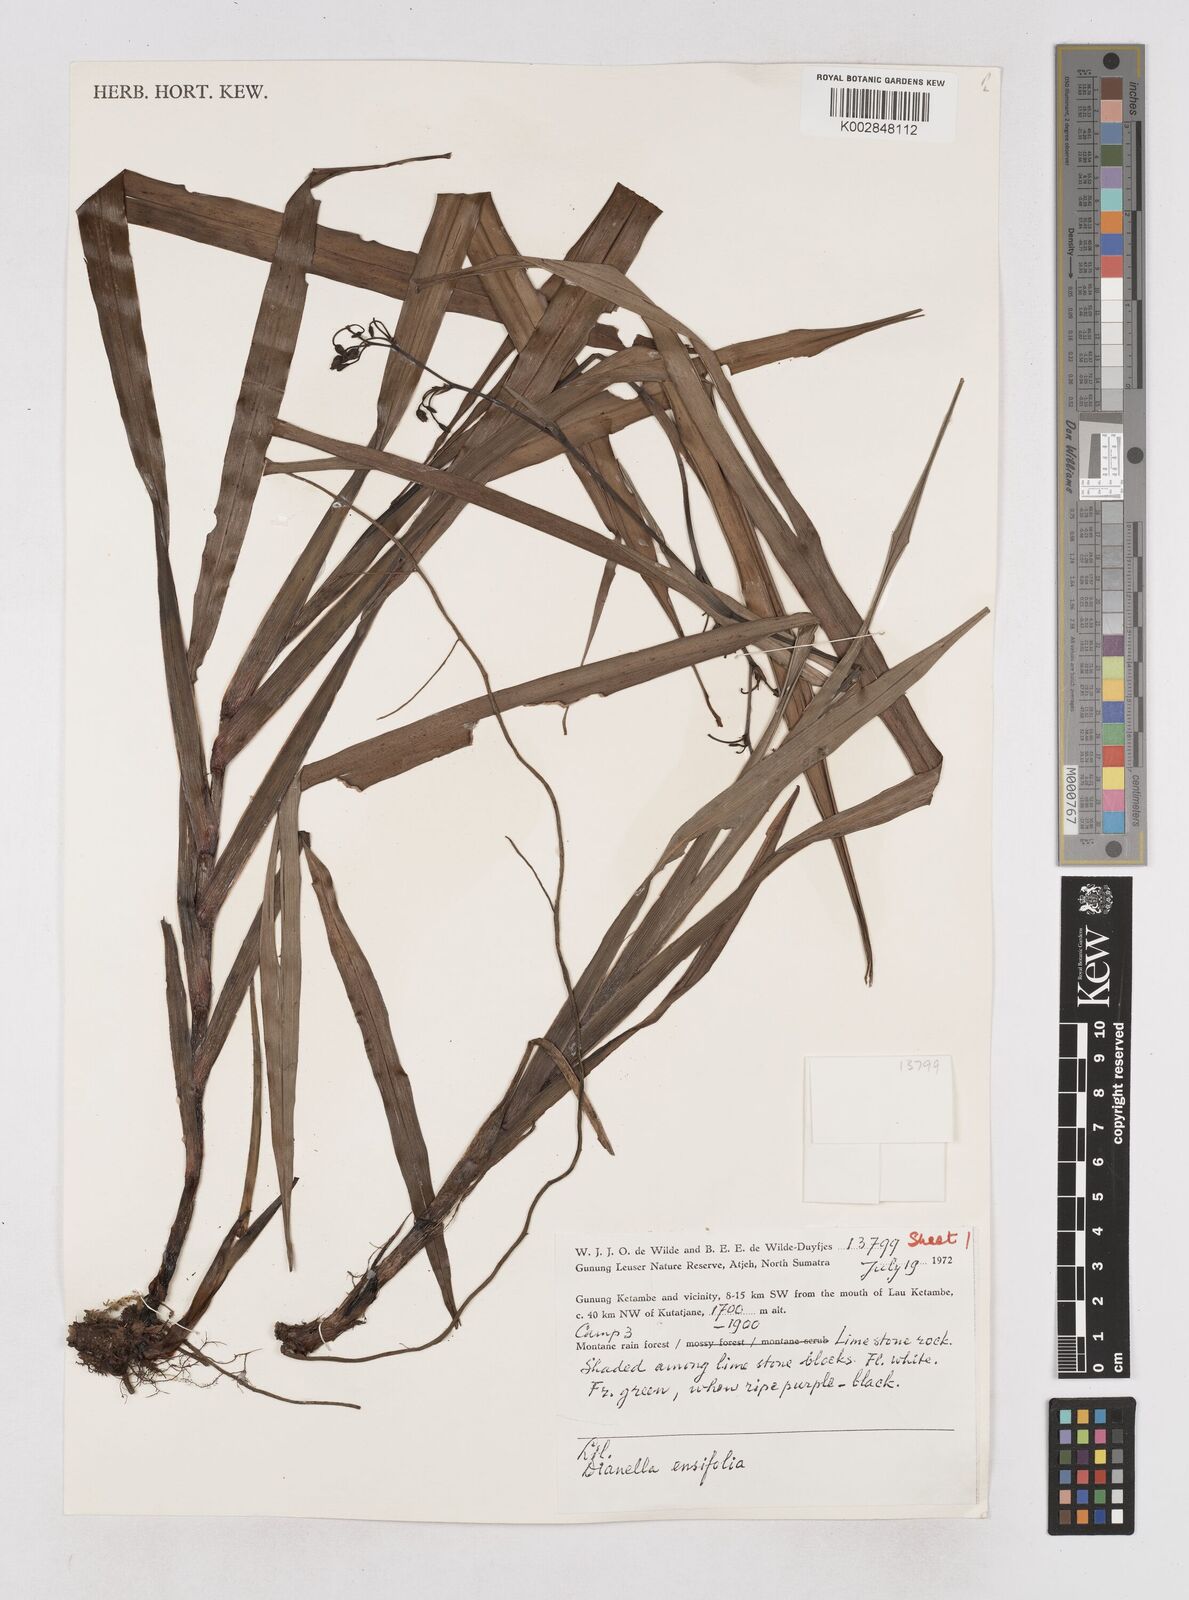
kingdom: Plantae
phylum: Tracheophyta
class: Liliopsida
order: Asparagales
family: Asphodelaceae
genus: Dianella
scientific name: Dianella ensifolia
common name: New zealand lilyplant
